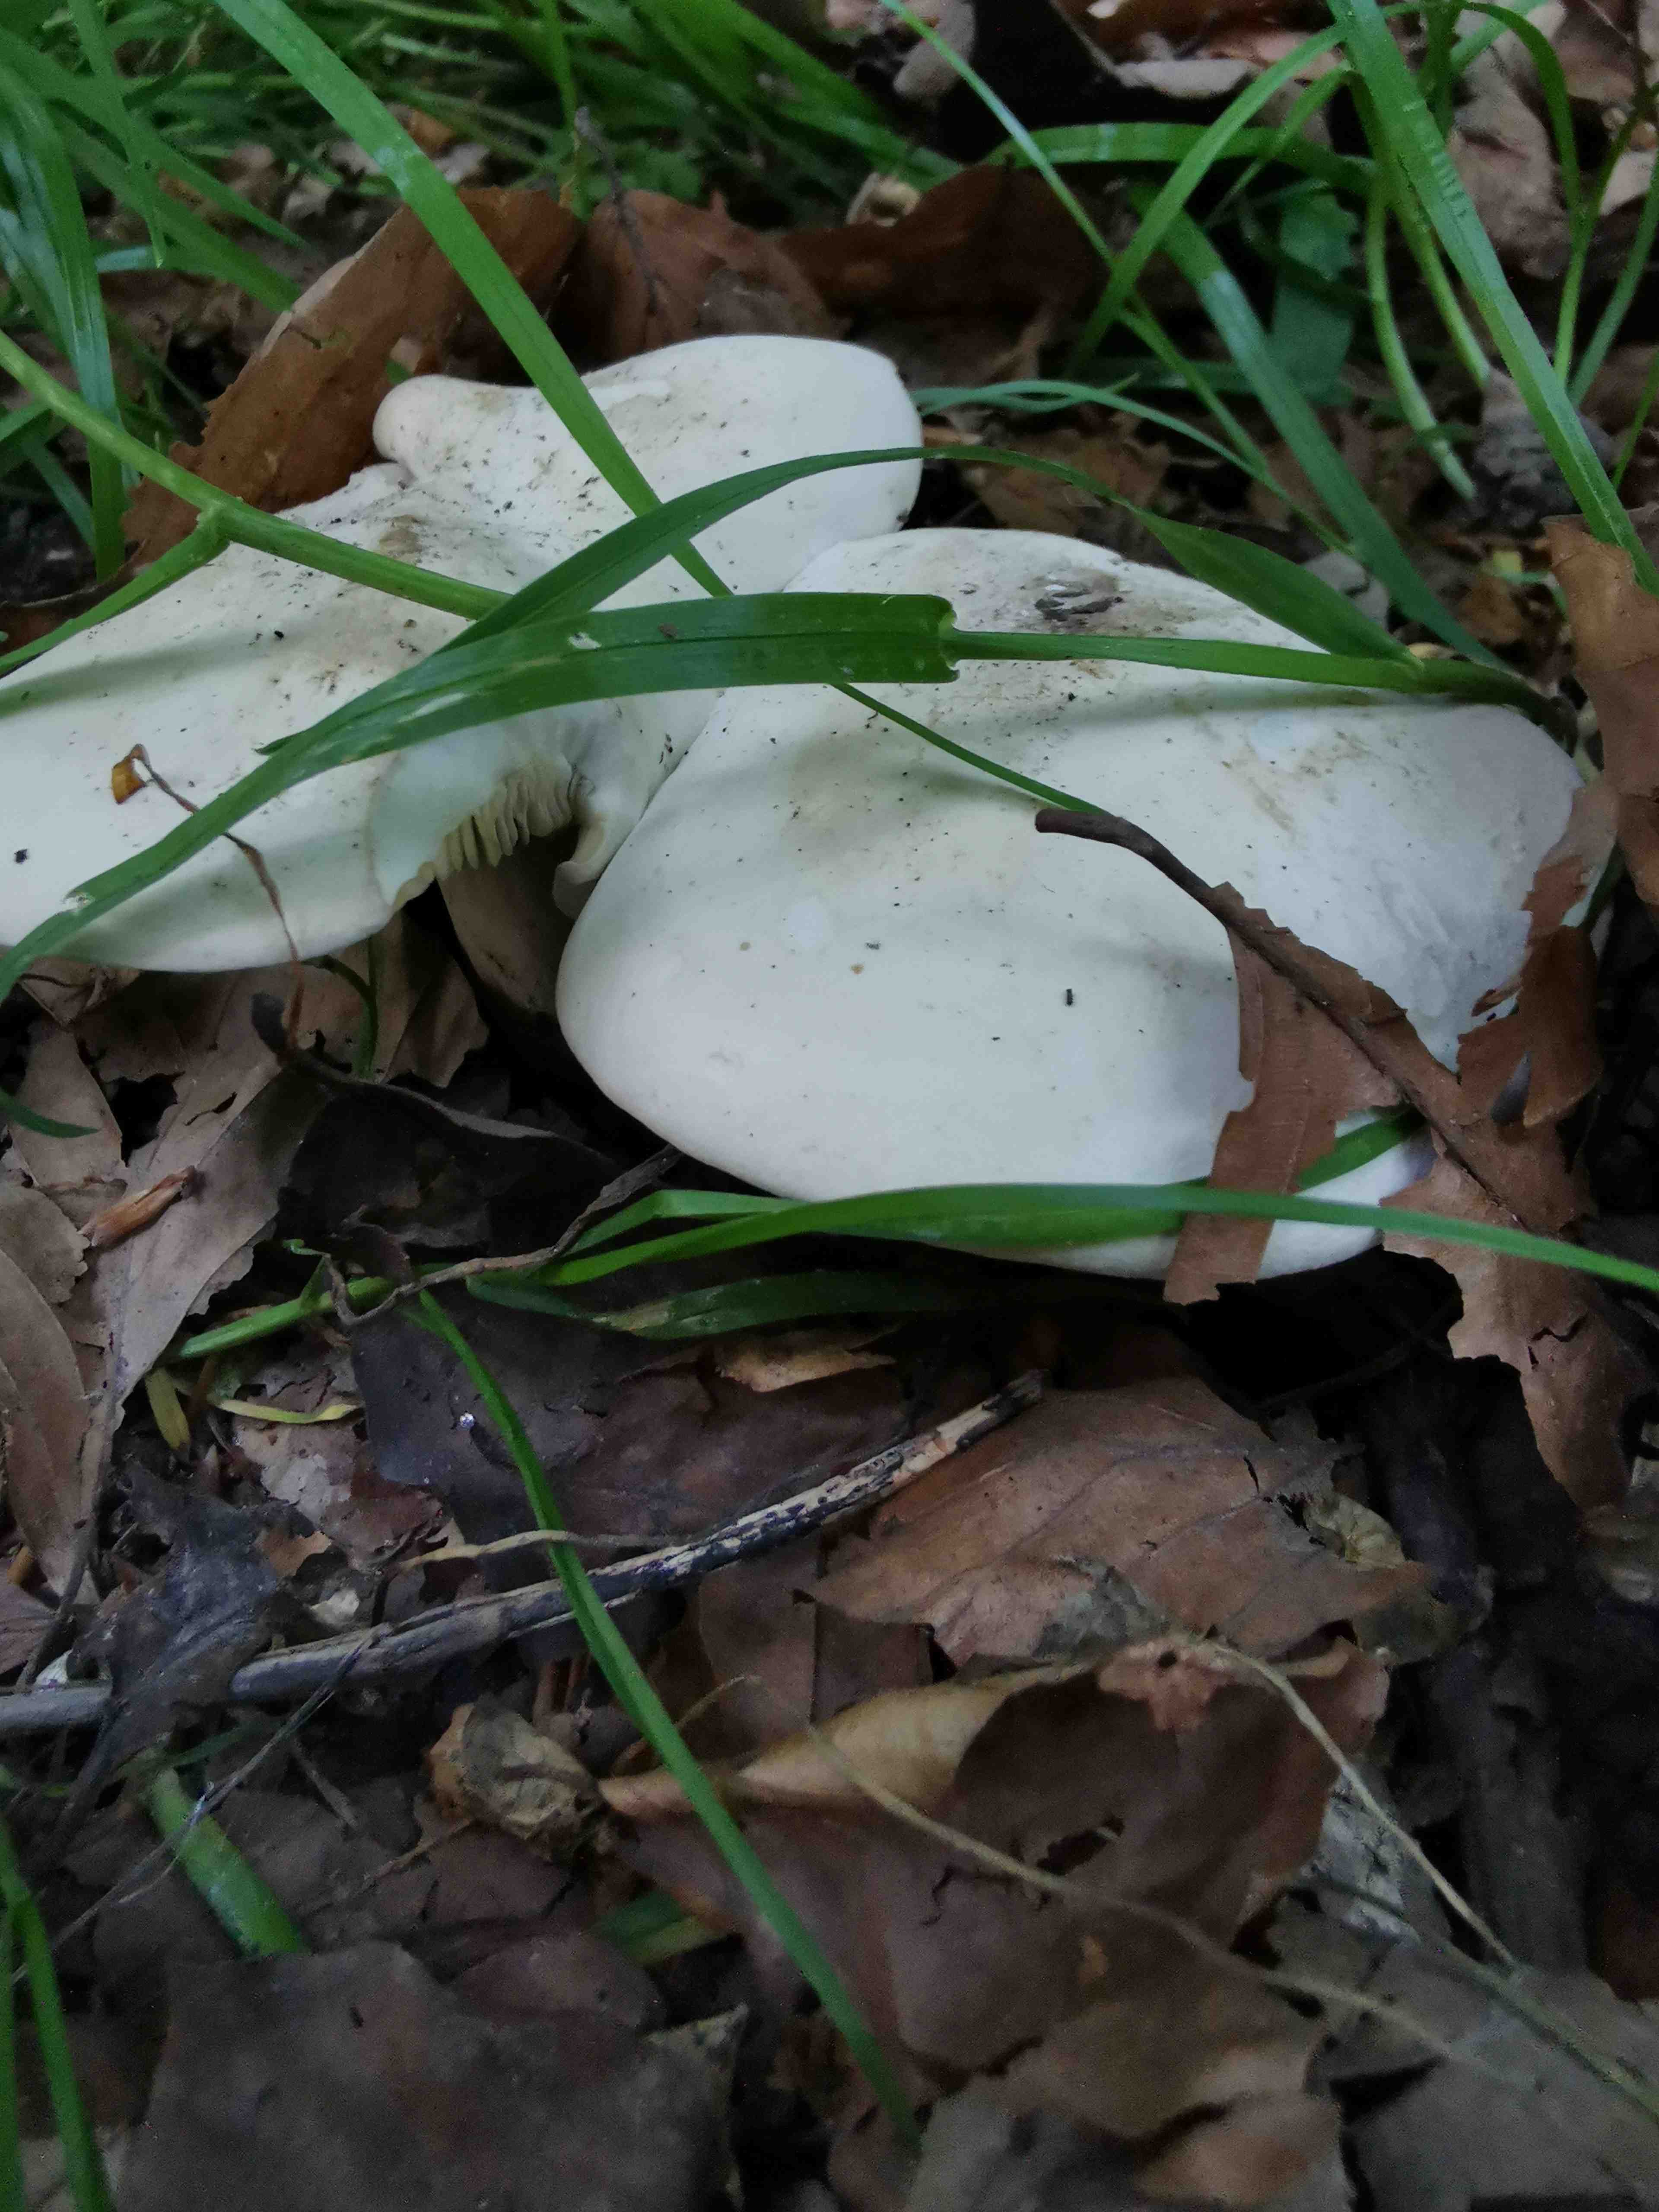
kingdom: Fungi
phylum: Basidiomycota
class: Agaricomycetes
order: Agaricales
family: Lyophyllaceae
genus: Calocybe
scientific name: Calocybe gambosa
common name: vårmusseron
